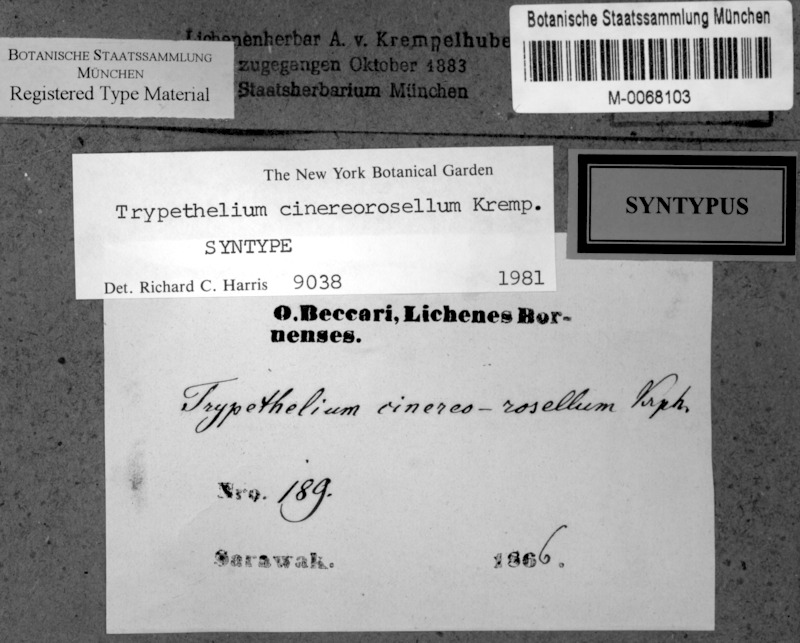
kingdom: Fungi
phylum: Ascomycota
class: Dothideomycetes
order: Trypetheliales
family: Trypetheliaceae
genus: Astrothelium
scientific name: Astrothelium cinereorosellum
